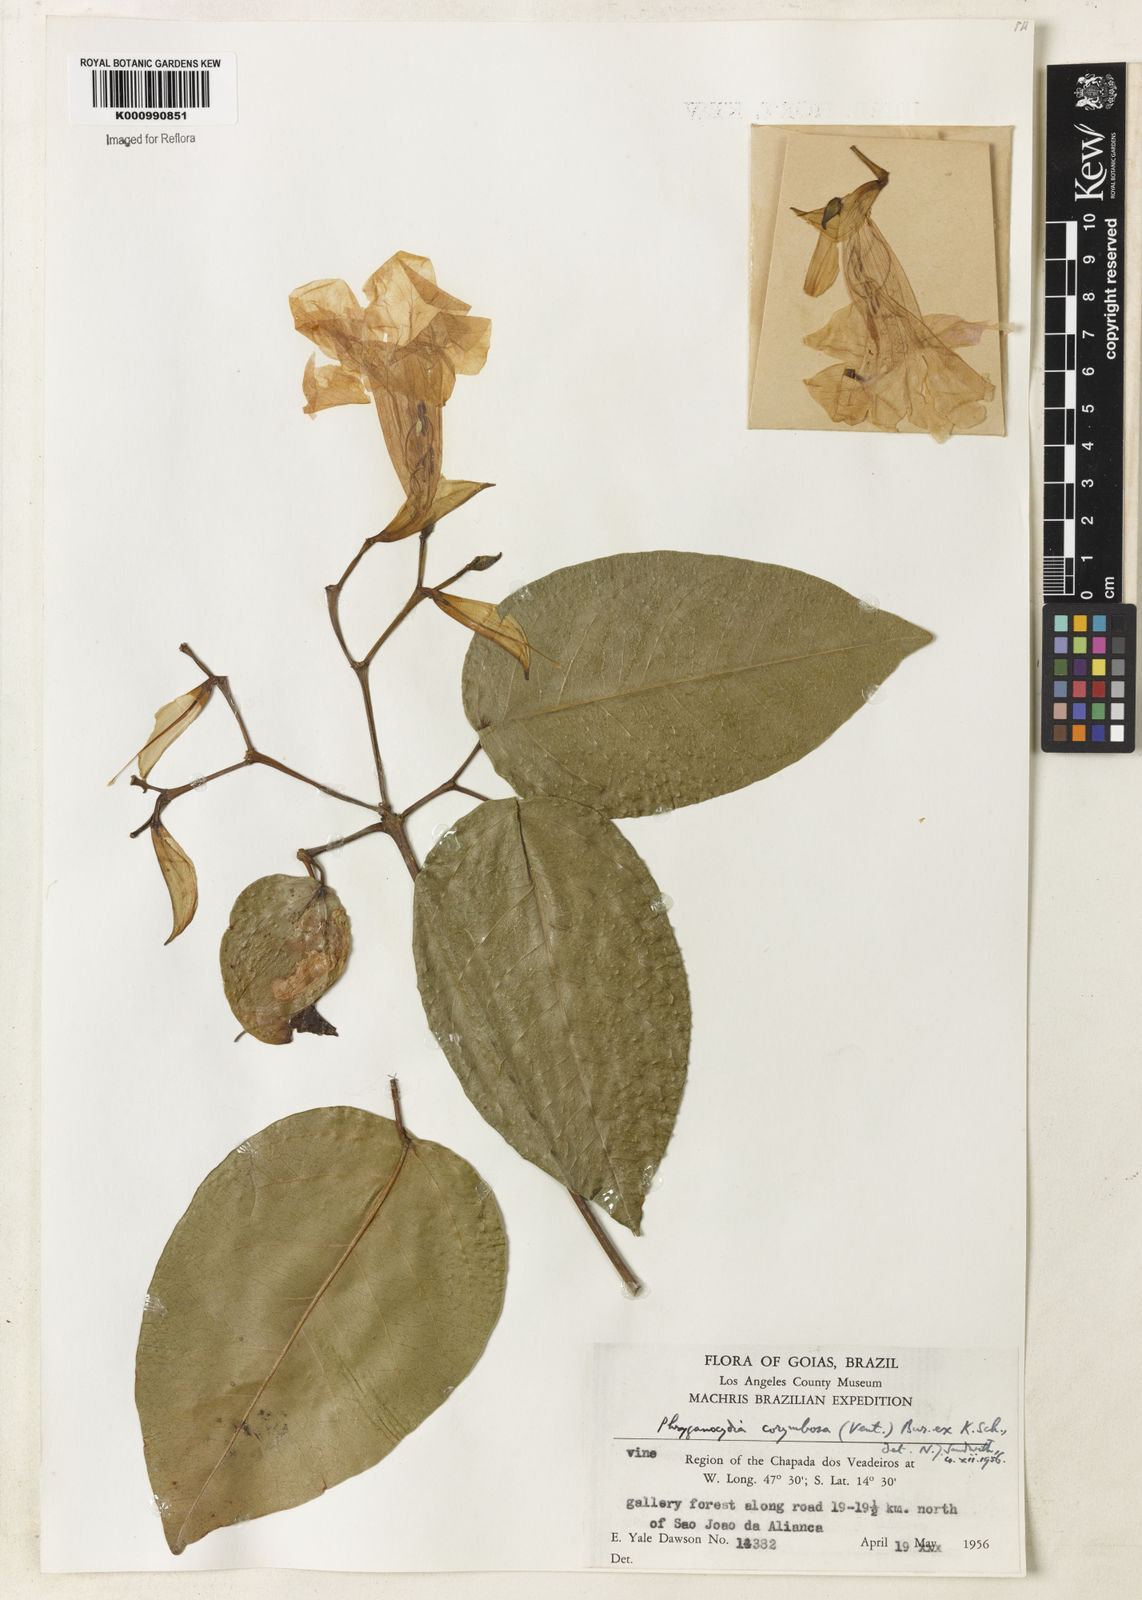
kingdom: Plantae
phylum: Tracheophyta
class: Magnoliopsida
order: Lamiales
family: Bignoniaceae
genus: Bignonia
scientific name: Bignonia corymbosa
